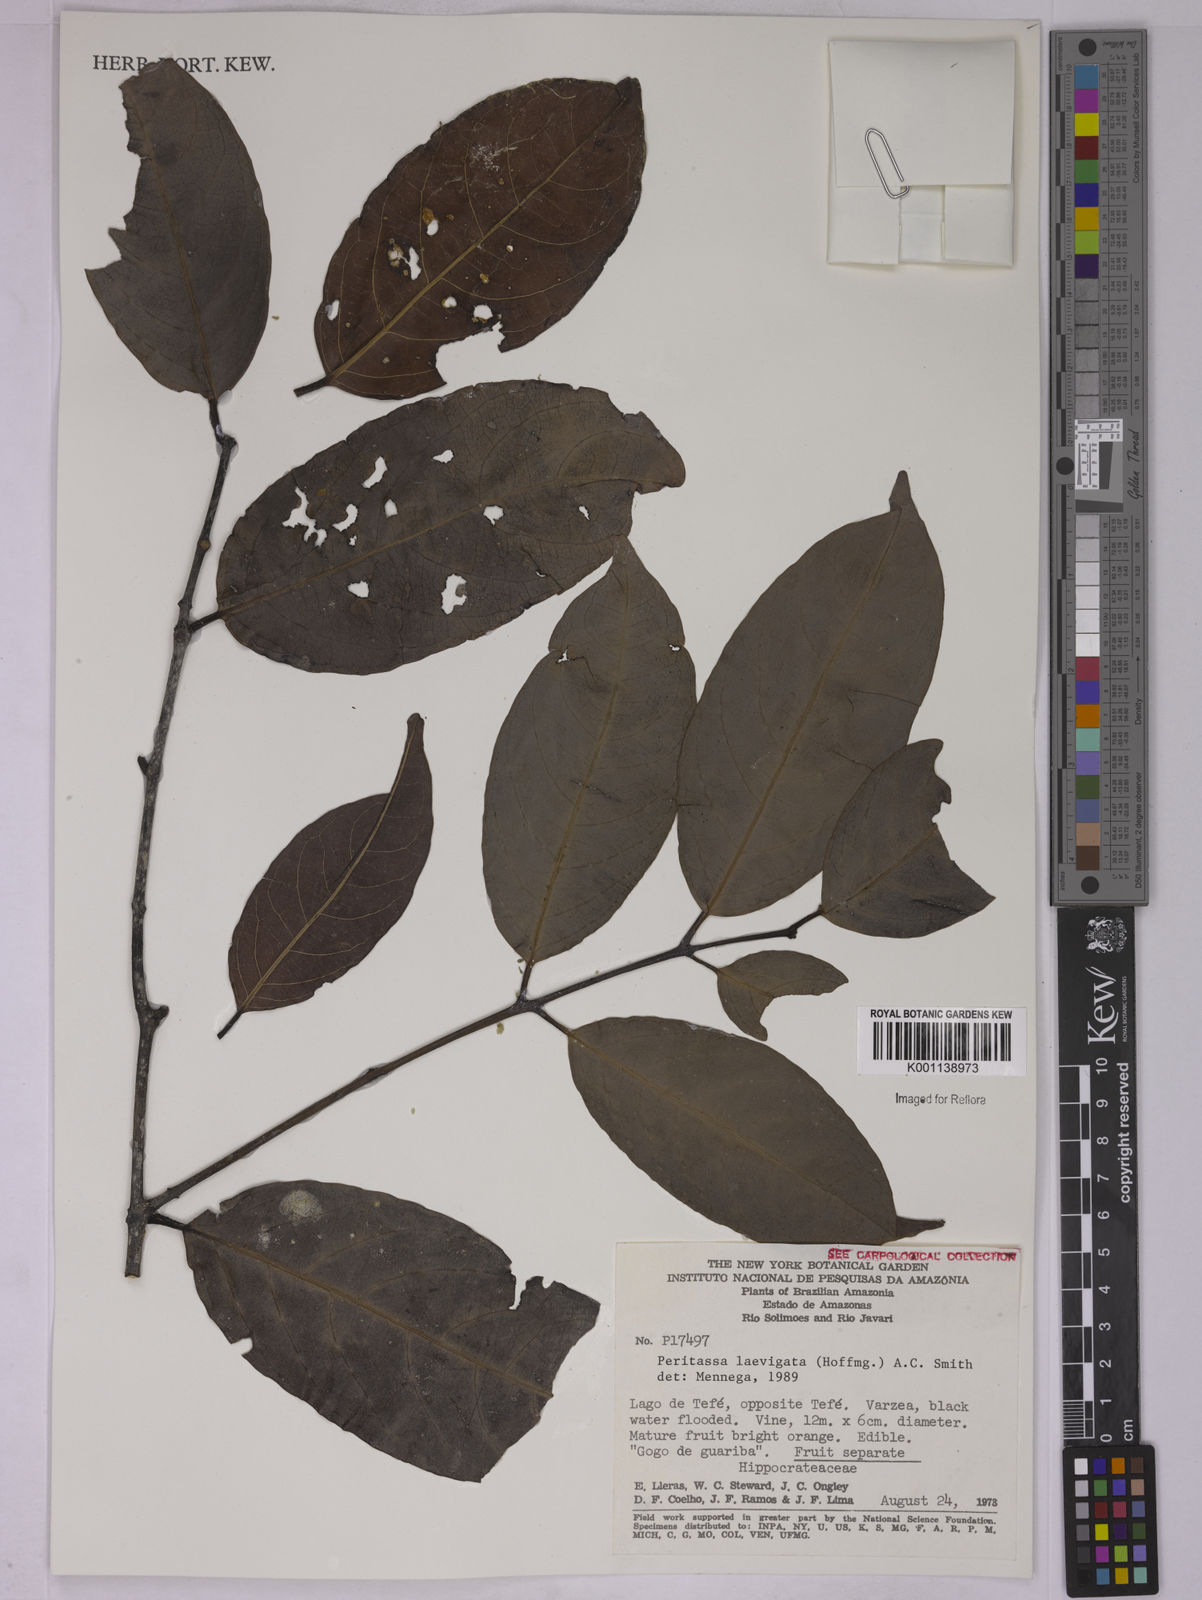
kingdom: Plantae
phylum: Tracheophyta
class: Magnoliopsida
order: Celastrales
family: Celastraceae
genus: Peritassa
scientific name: Peritassa laevigata
